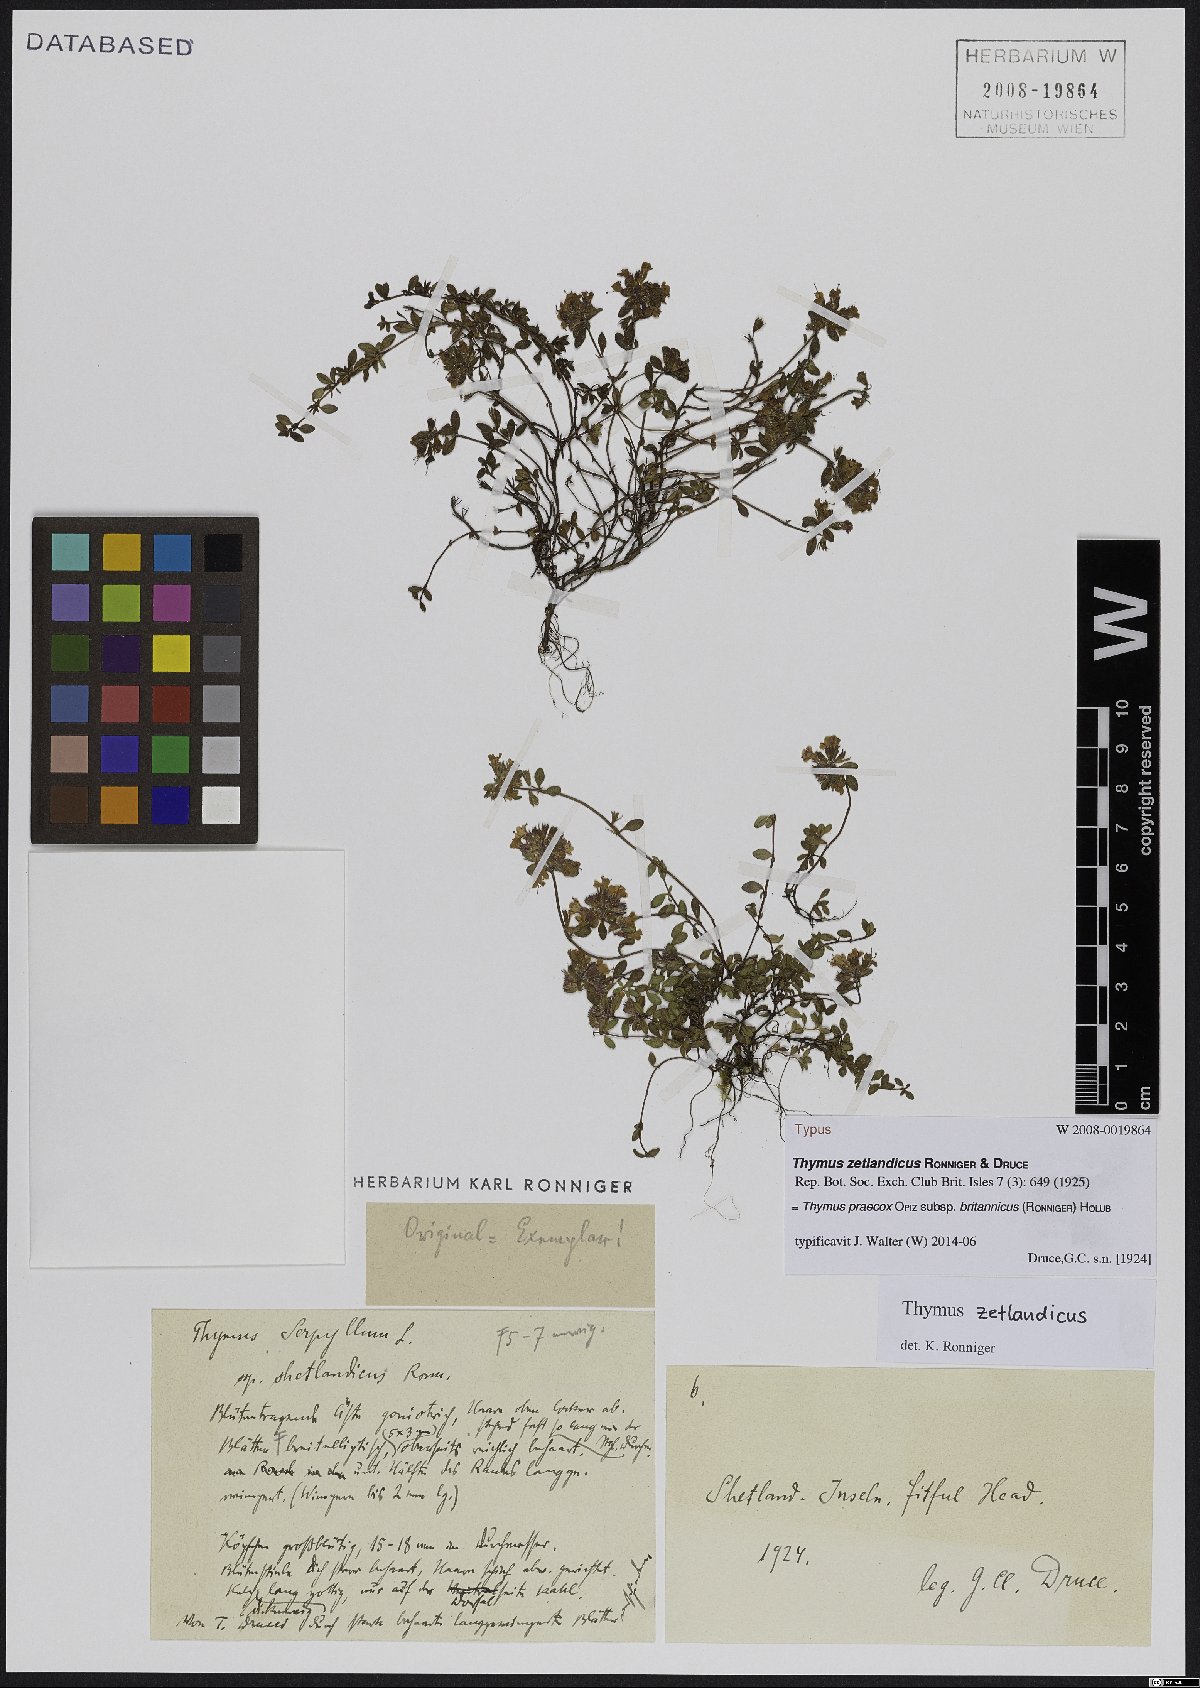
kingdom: Plantae
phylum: Tracheophyta
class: Magnoliopsida
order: Lamiales
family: Lamiaceae
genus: Thymus
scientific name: Thymus praecox
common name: Wild thyme
